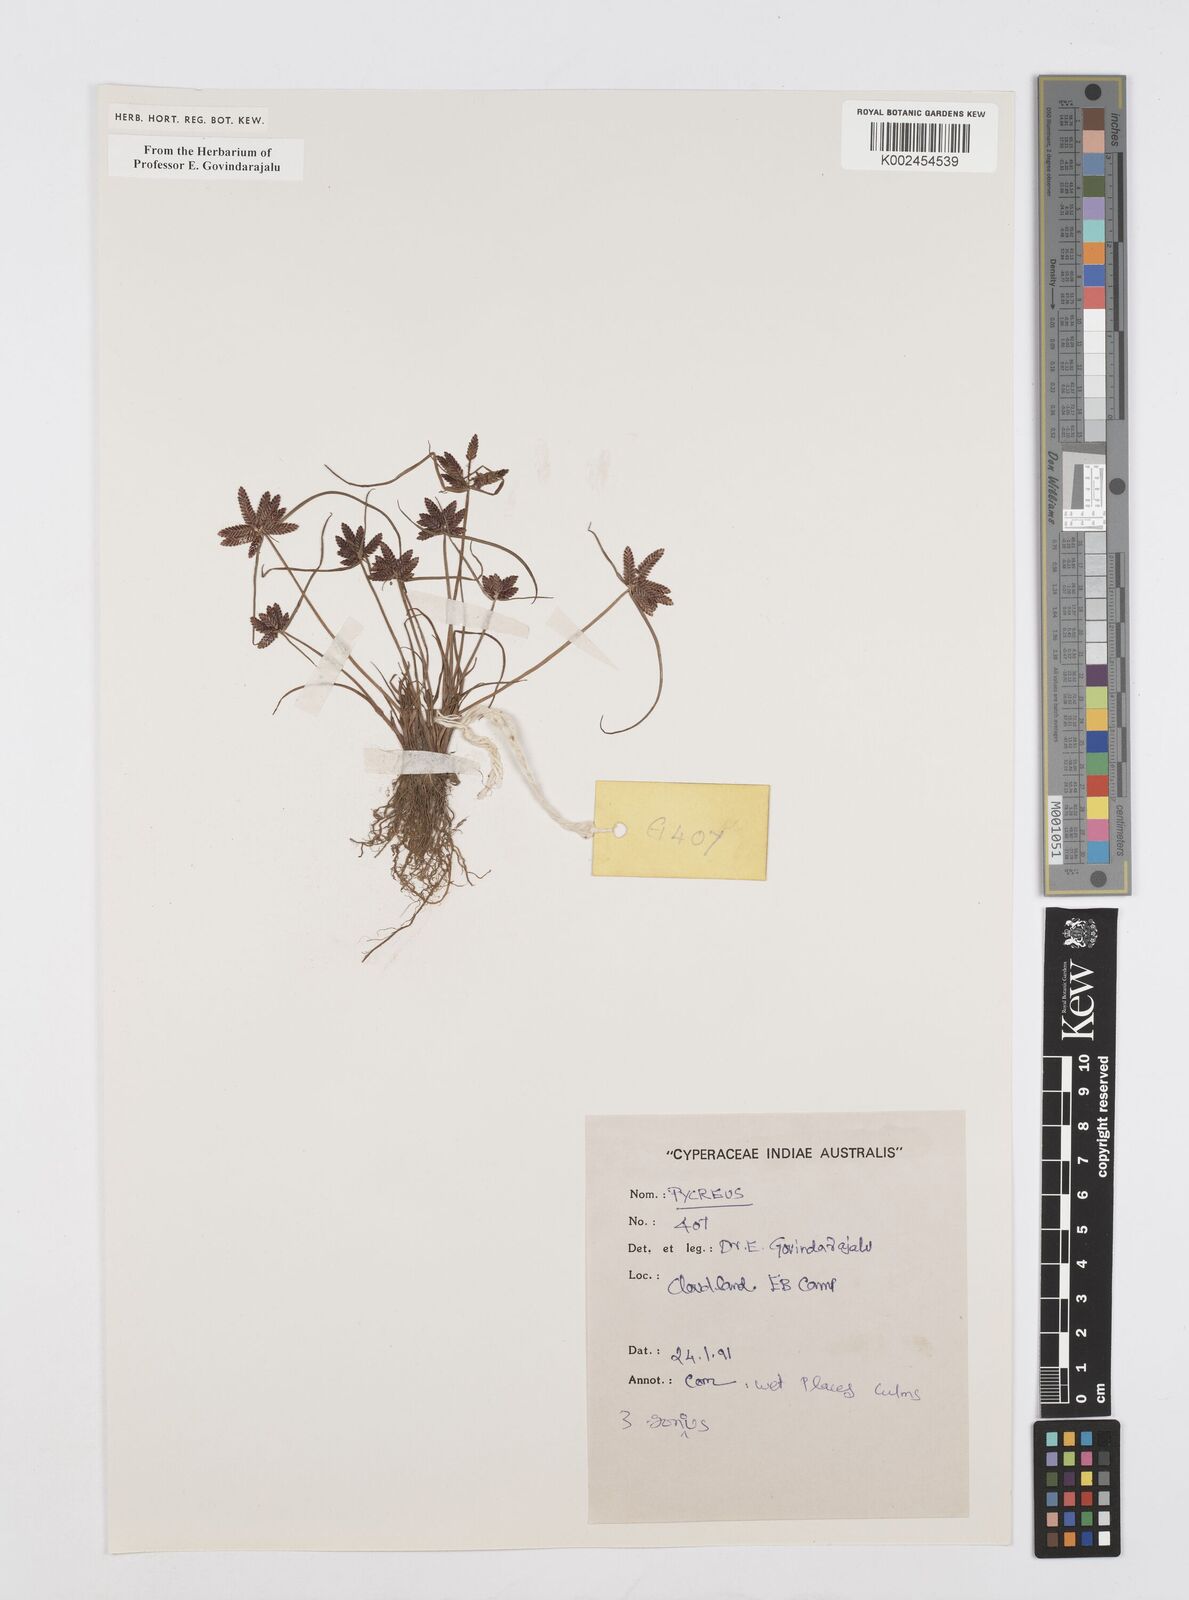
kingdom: Plantae
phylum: Tracheophyta
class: Liliopsida
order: Poales
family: Cyperaceae
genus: Cyperus
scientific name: Cyperus
